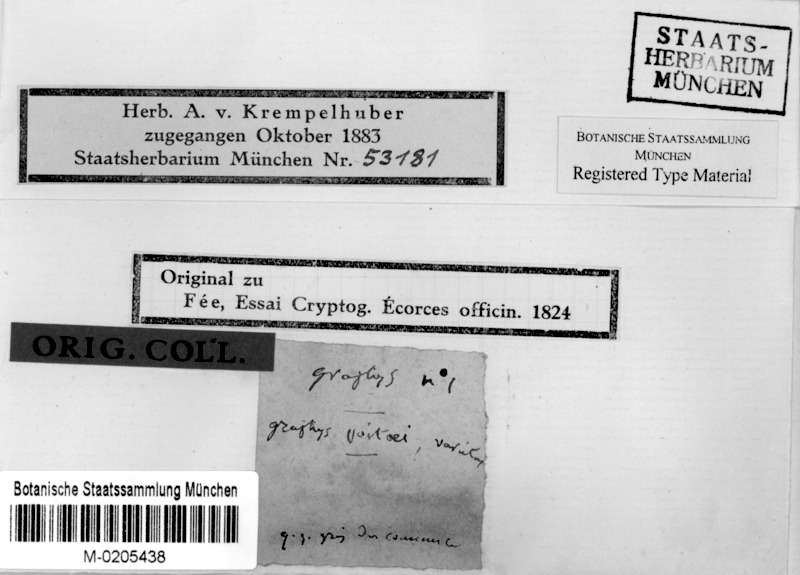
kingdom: Fungi
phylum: Ascomycota
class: Lecanoromycetes
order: Ostropales
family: Graphidaceae
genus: Diorygma
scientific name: Diorygma poitaei
